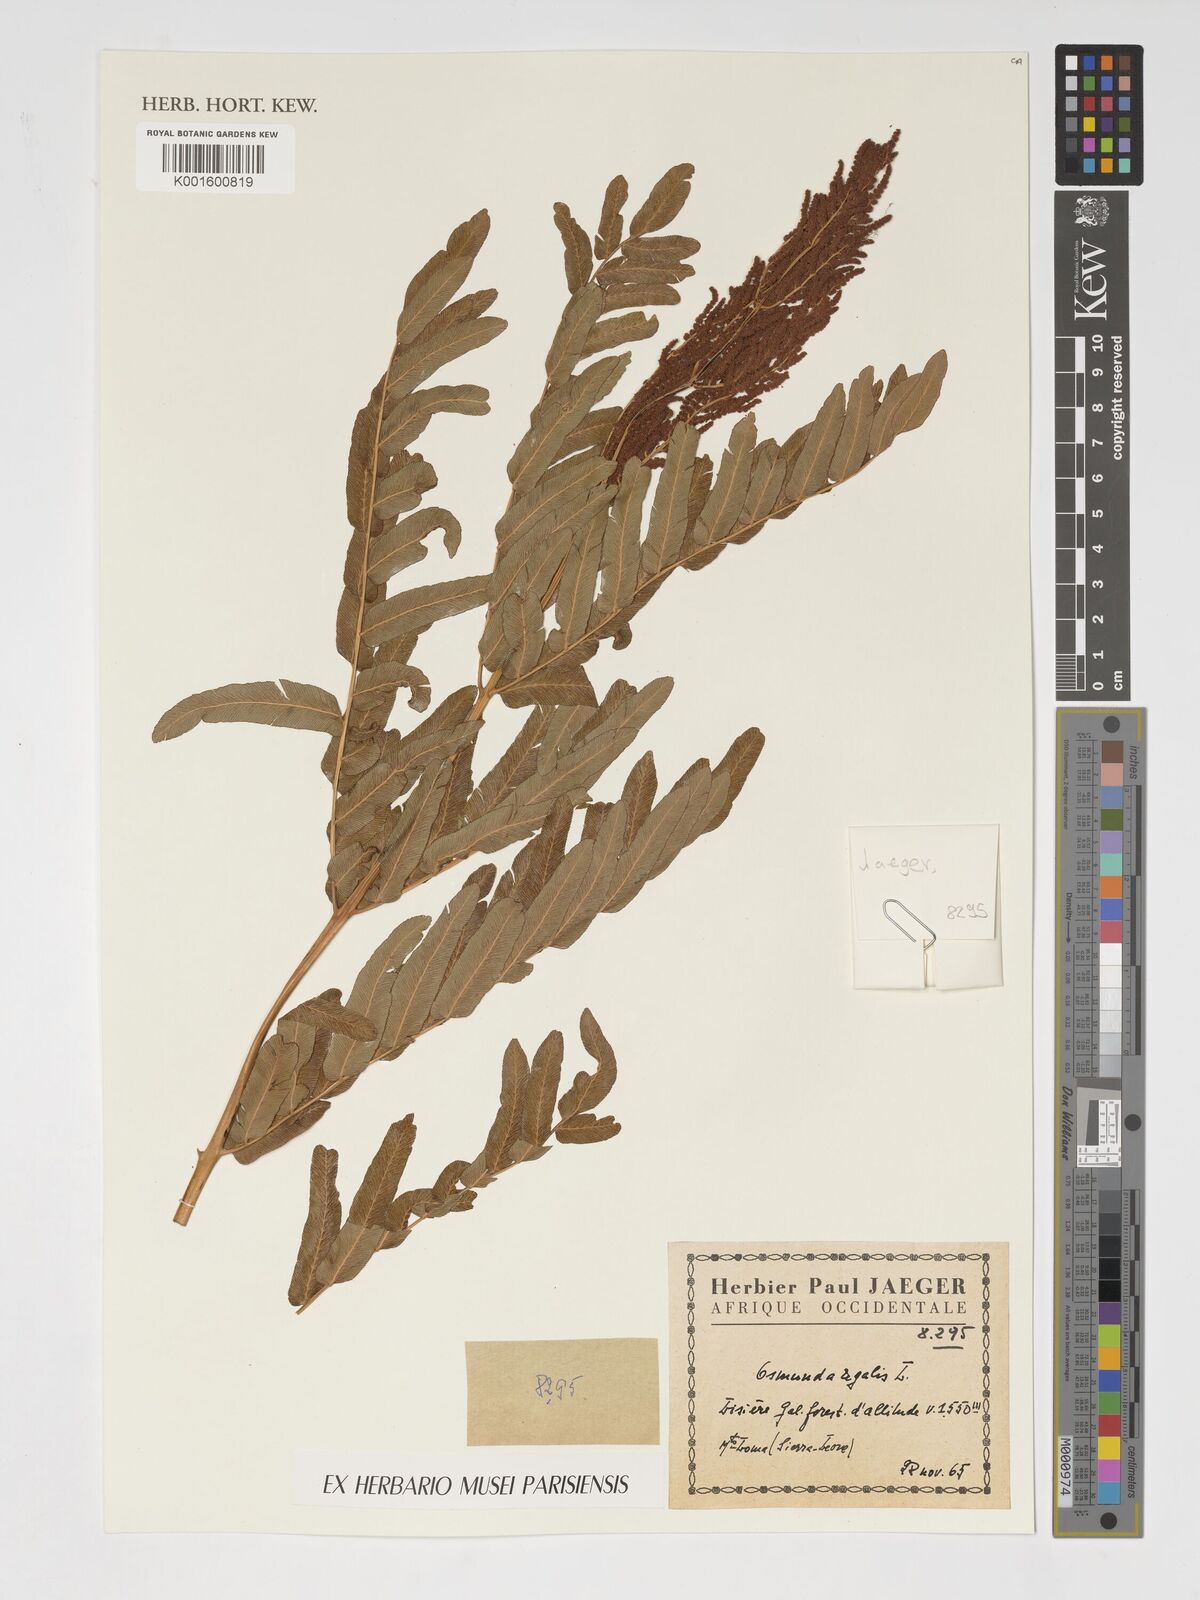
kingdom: Plantae
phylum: Tracheophyta
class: Polypodiopsida
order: Osmundales
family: Osmundaceae
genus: Osmunda
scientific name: Osmunda regalis
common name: Royal fern
